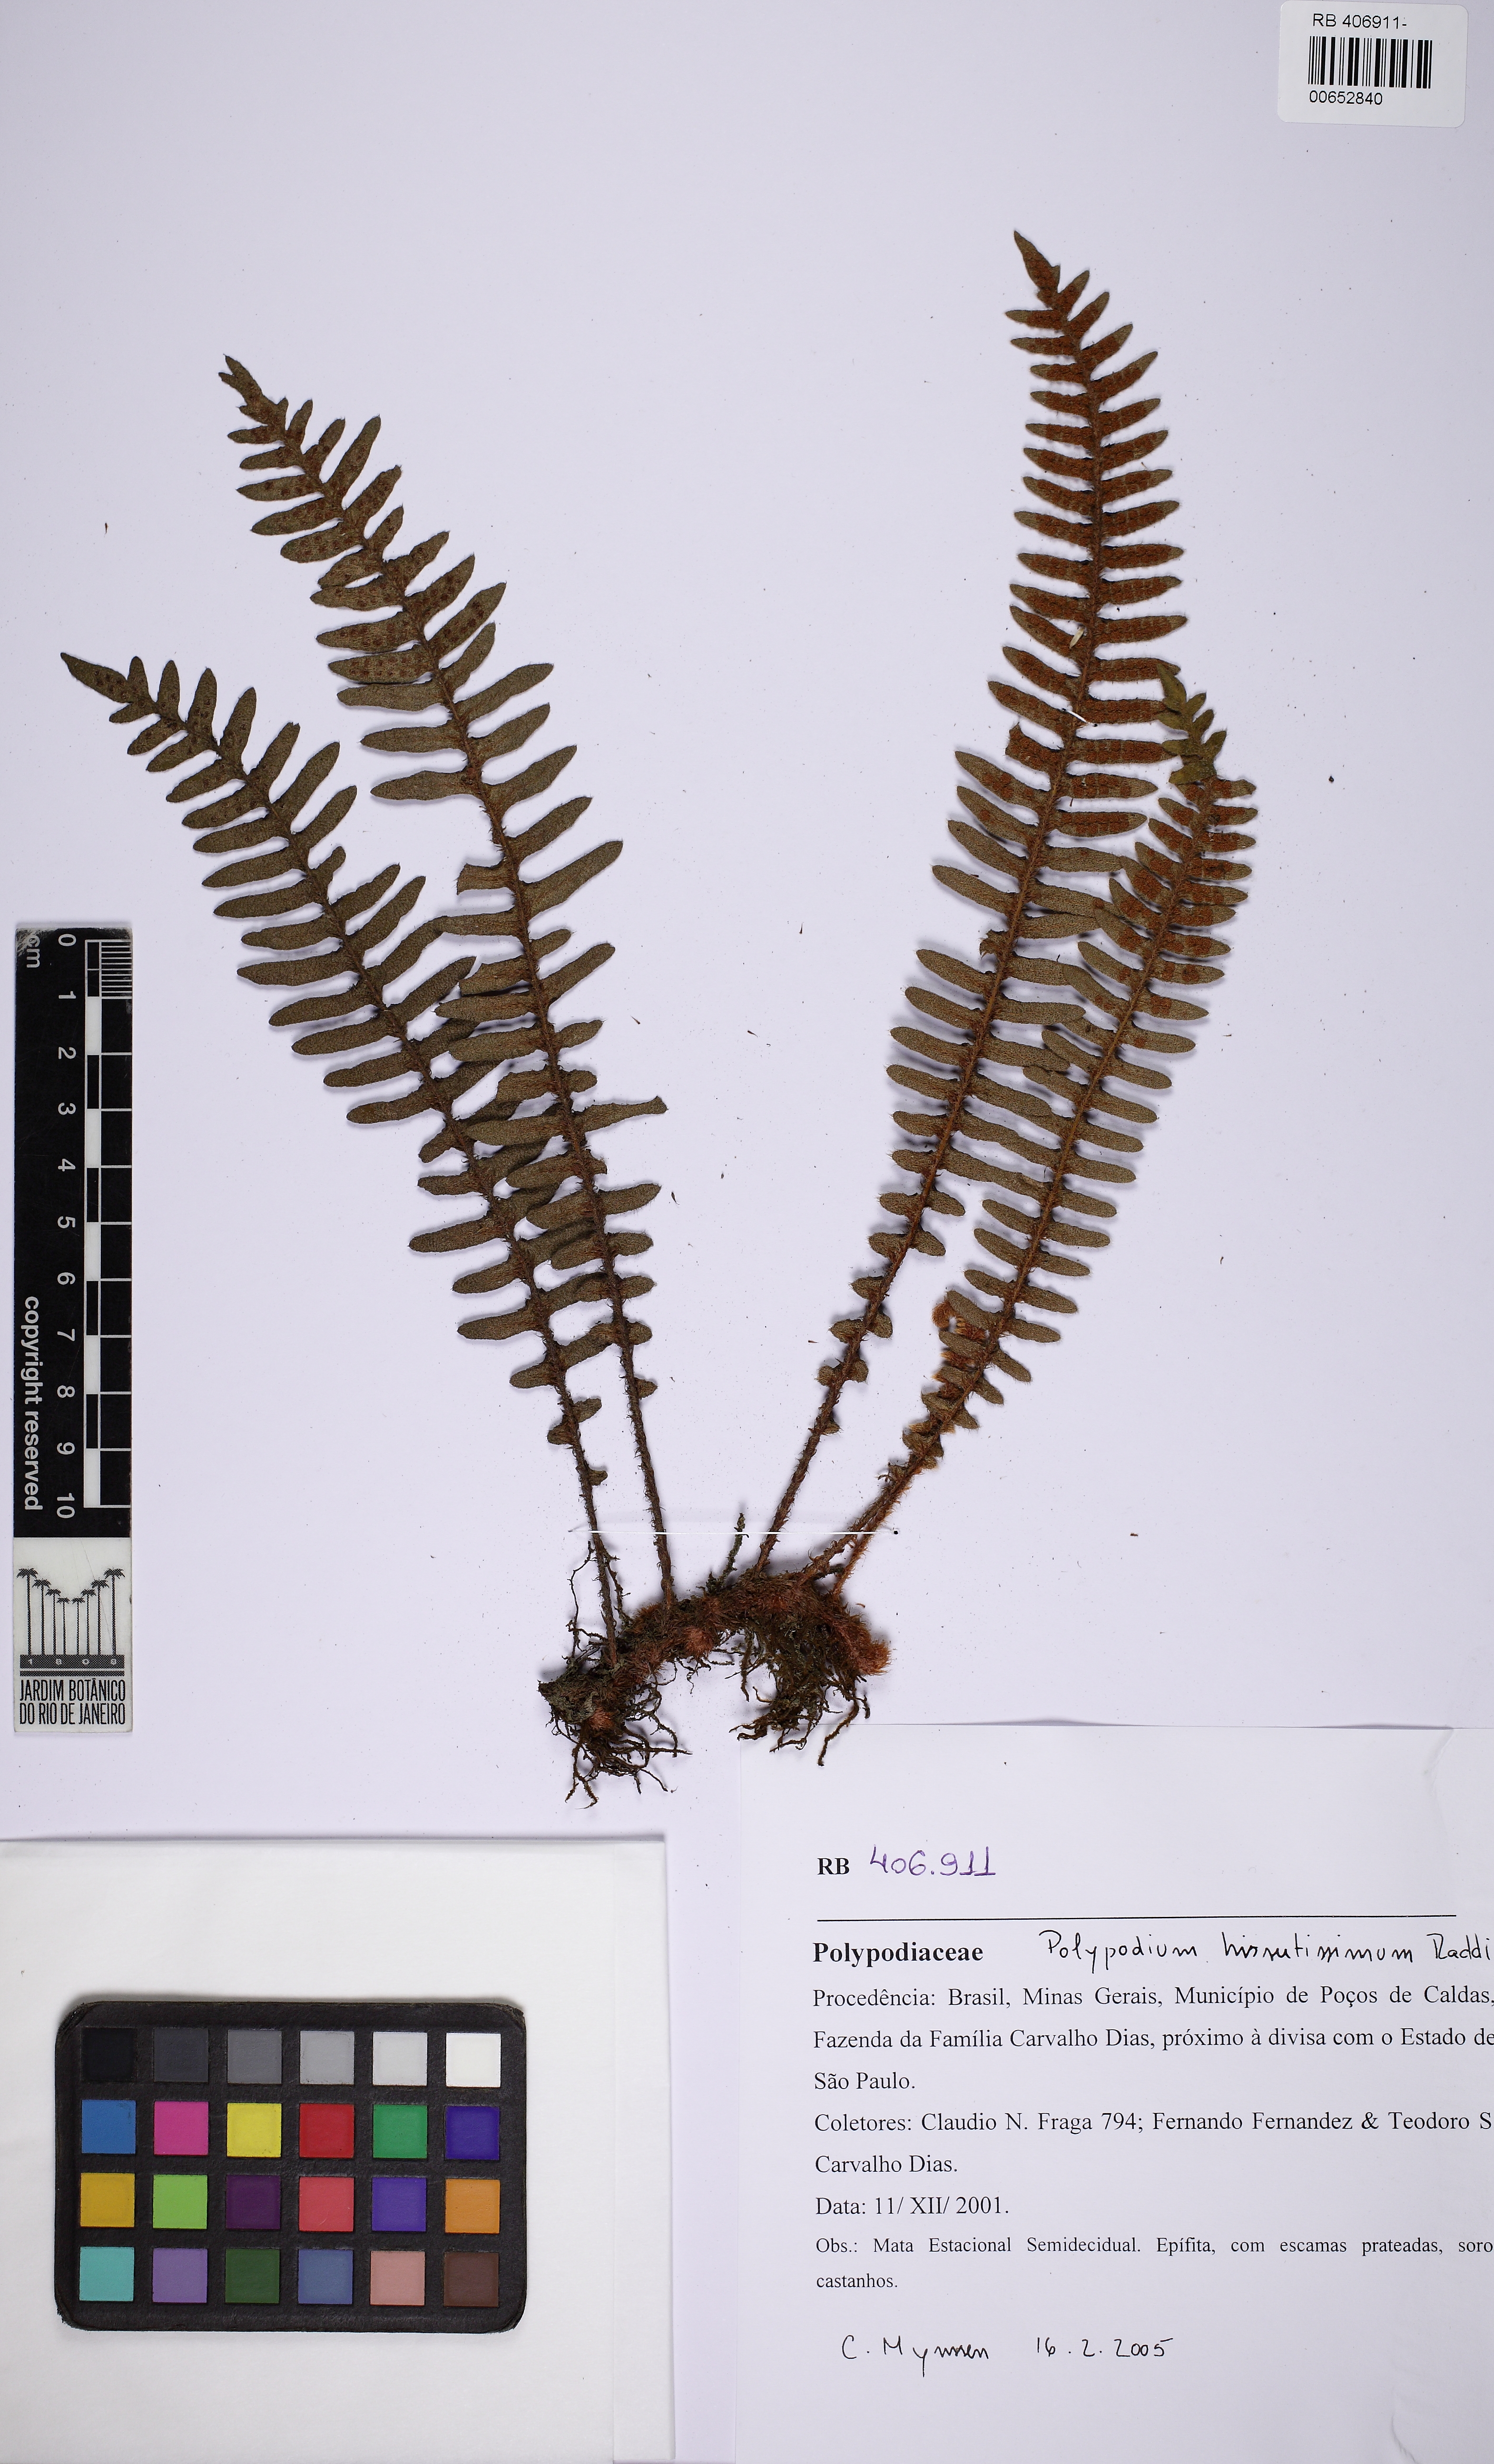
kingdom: Plantae
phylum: Tracheophyta
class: Polypodiopsida
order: Polypodiales
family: Polypodiaceae
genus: Pleopeltis
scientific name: Pleopeltis hirsutissima
